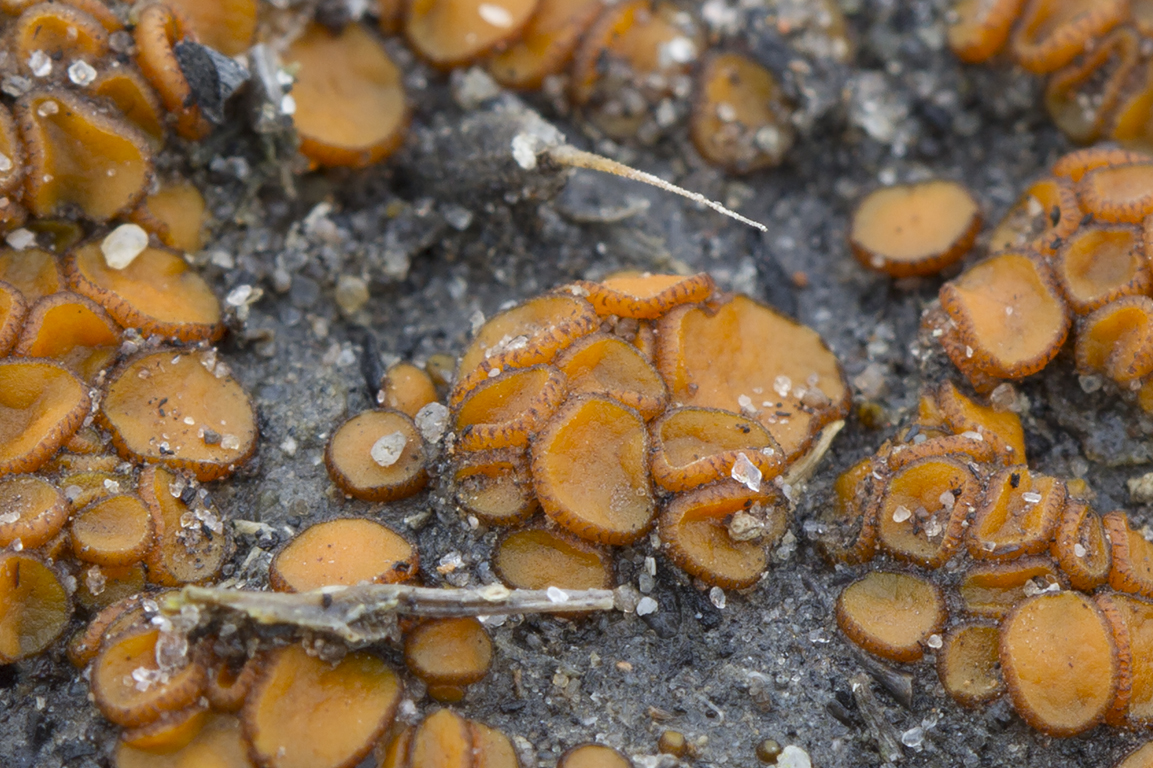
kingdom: Fungi
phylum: Ascomycota
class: Pezizomycetes
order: Pezizales
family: Pyronemataceae
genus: Anthracobia
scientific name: Anthracobia macrocystis
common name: orange ildbæger
